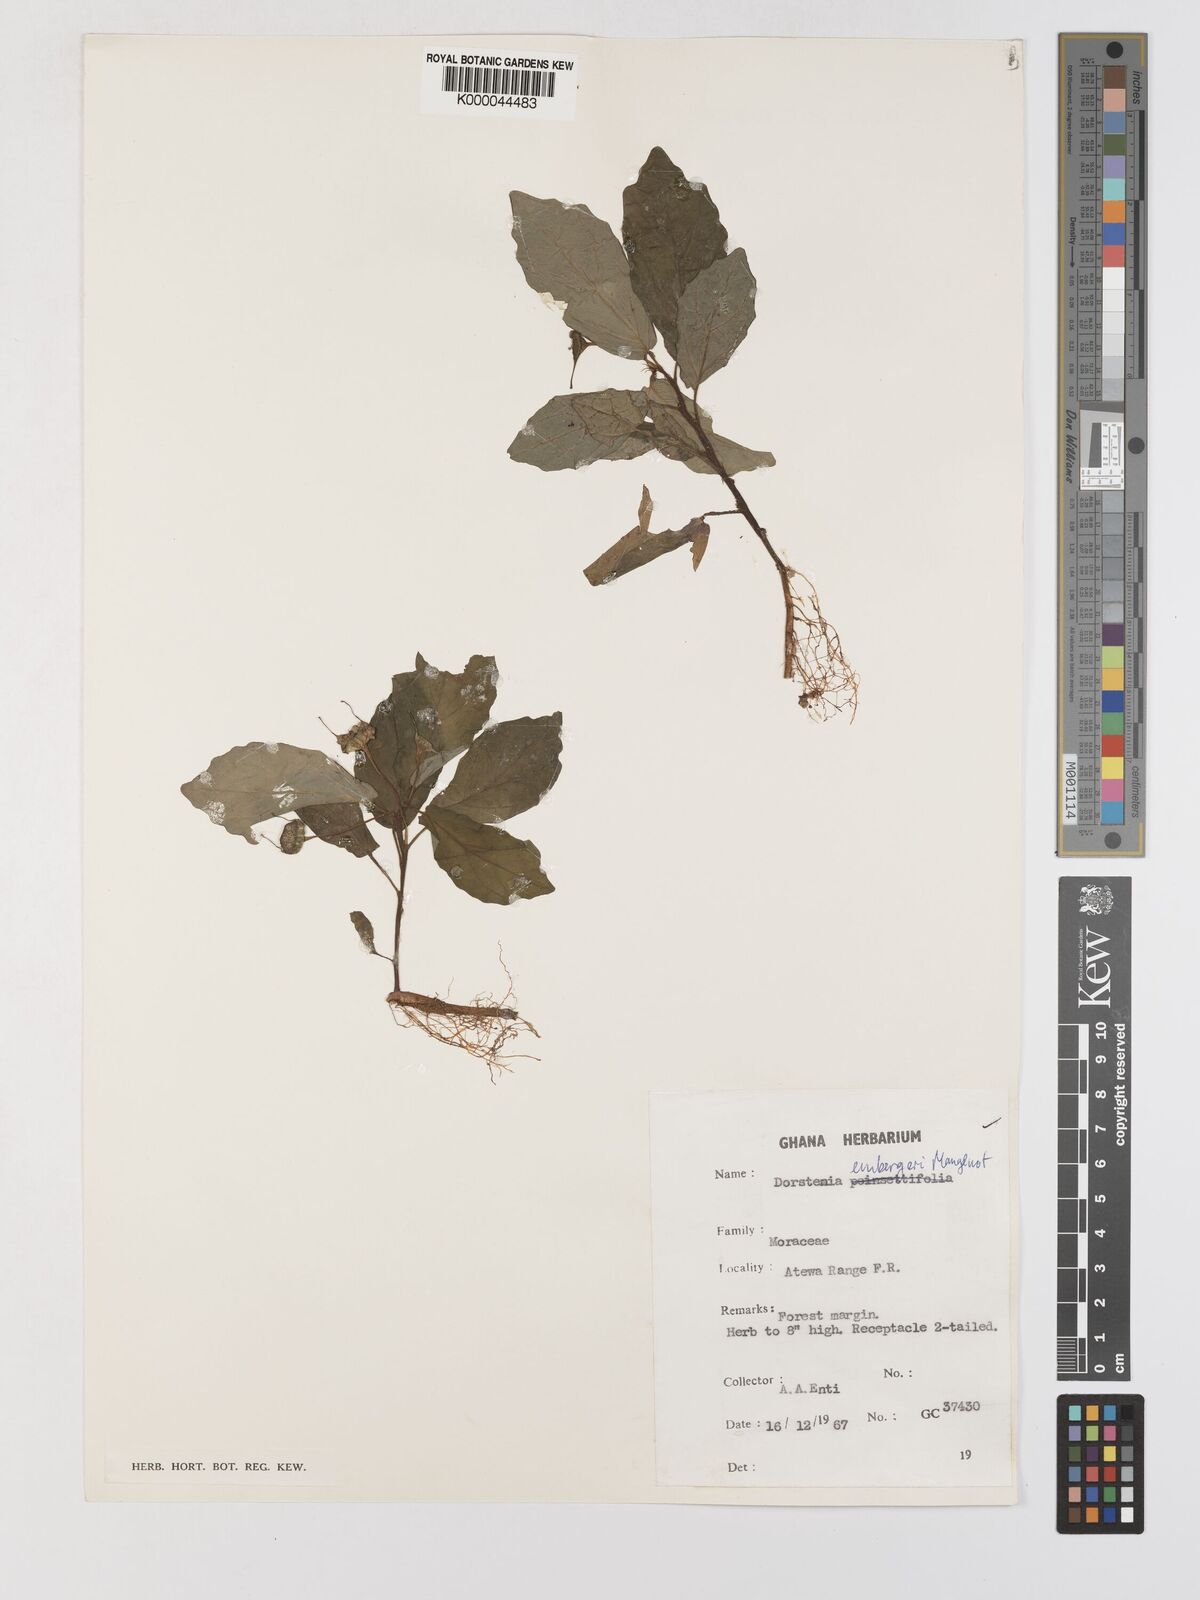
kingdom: Plantae
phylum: Tracheophyta
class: Magnoliopsida
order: Rosales
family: Moraceae
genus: Dorstenia
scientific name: Dorstenia embergeri
